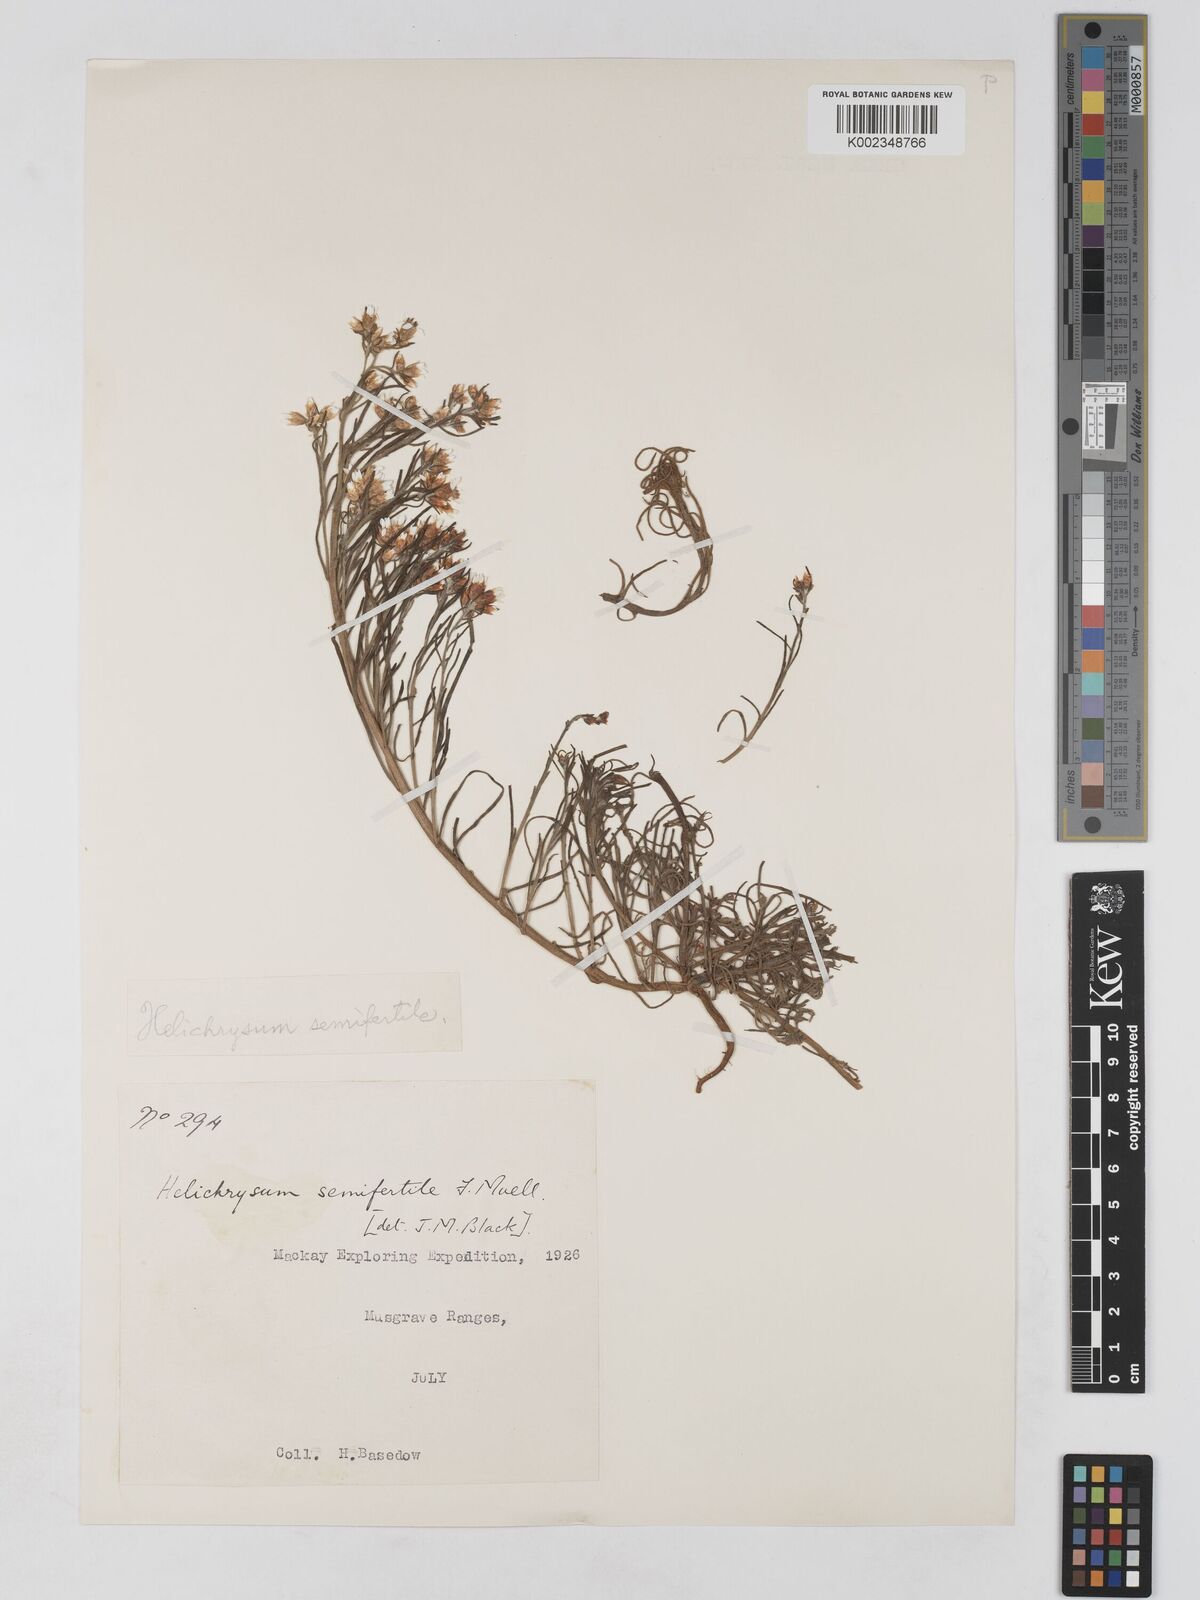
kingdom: Plantae
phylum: Tracheophyta
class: Magnoliopsida
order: Asterales
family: Asteraceae
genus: Schoenia
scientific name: Schoenia ramosissima
